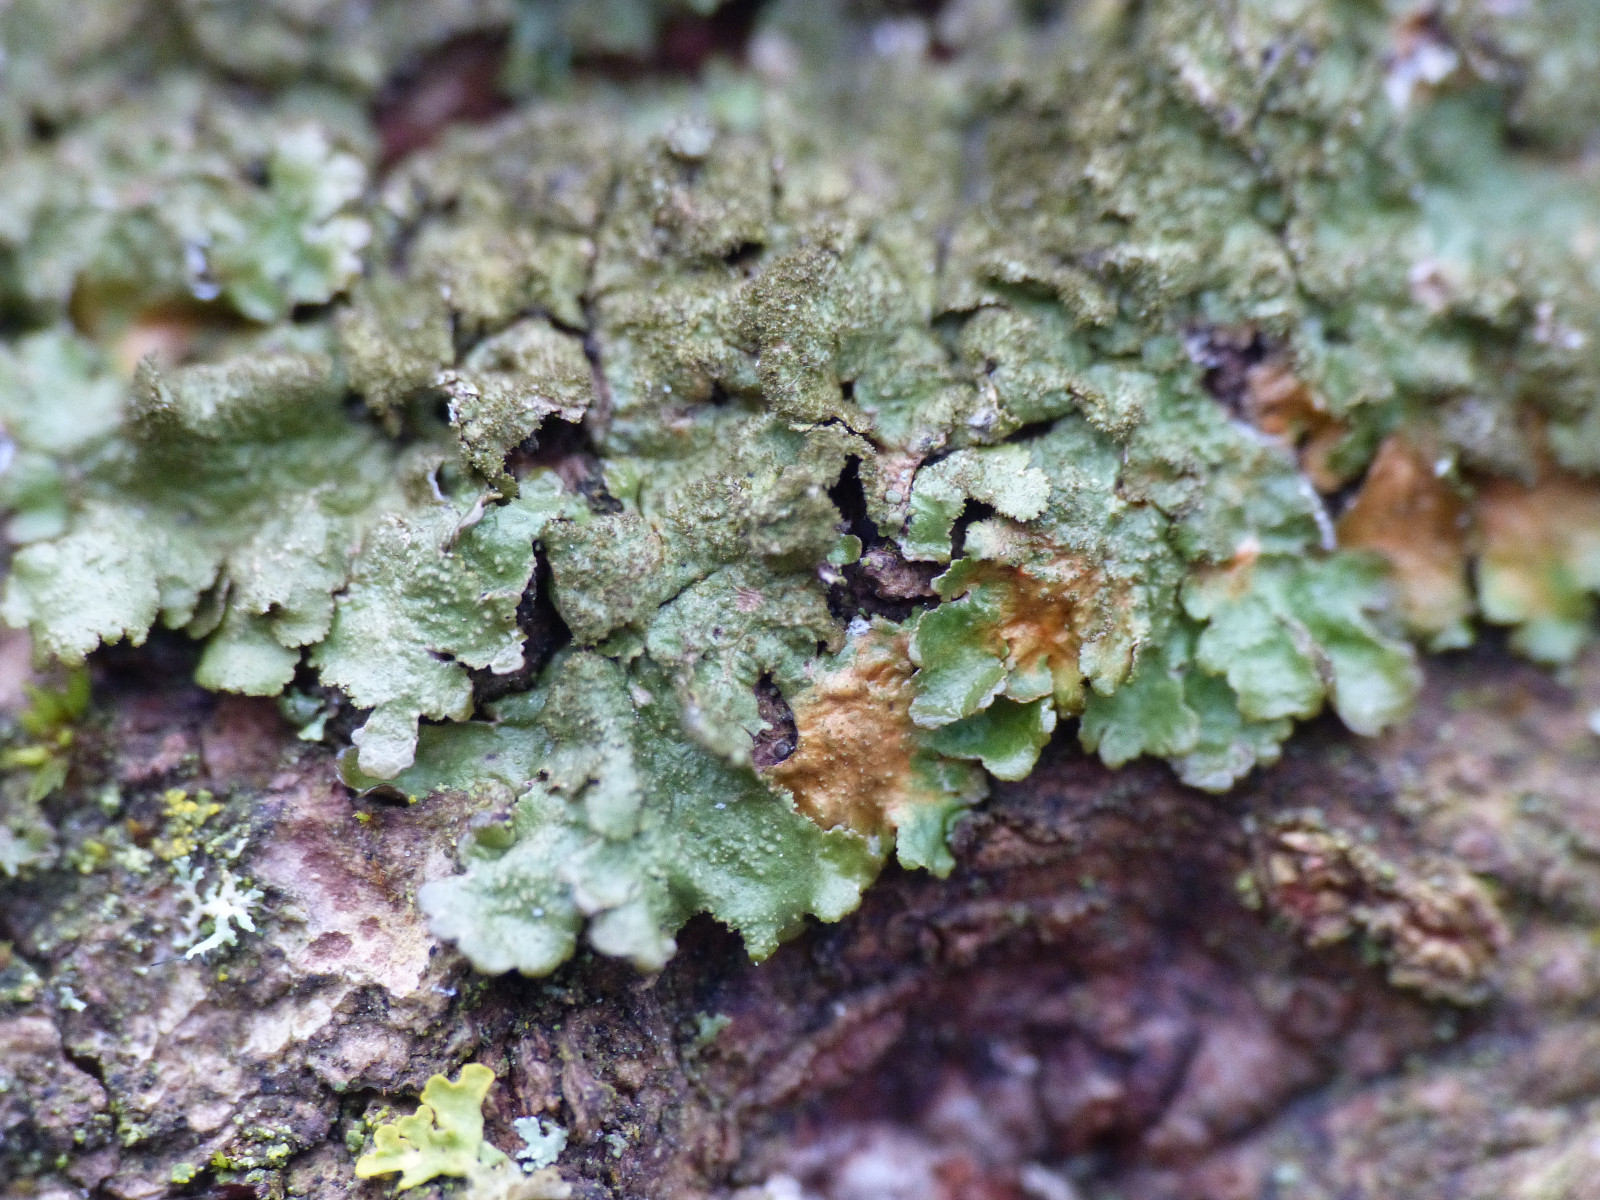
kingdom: Fungi
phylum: Ascomycota
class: Lecanoromycetes
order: Lecanorales
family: Parmeliaceae
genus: Melanelixia
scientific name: Melanelixia glabratula
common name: glinsende skållav
